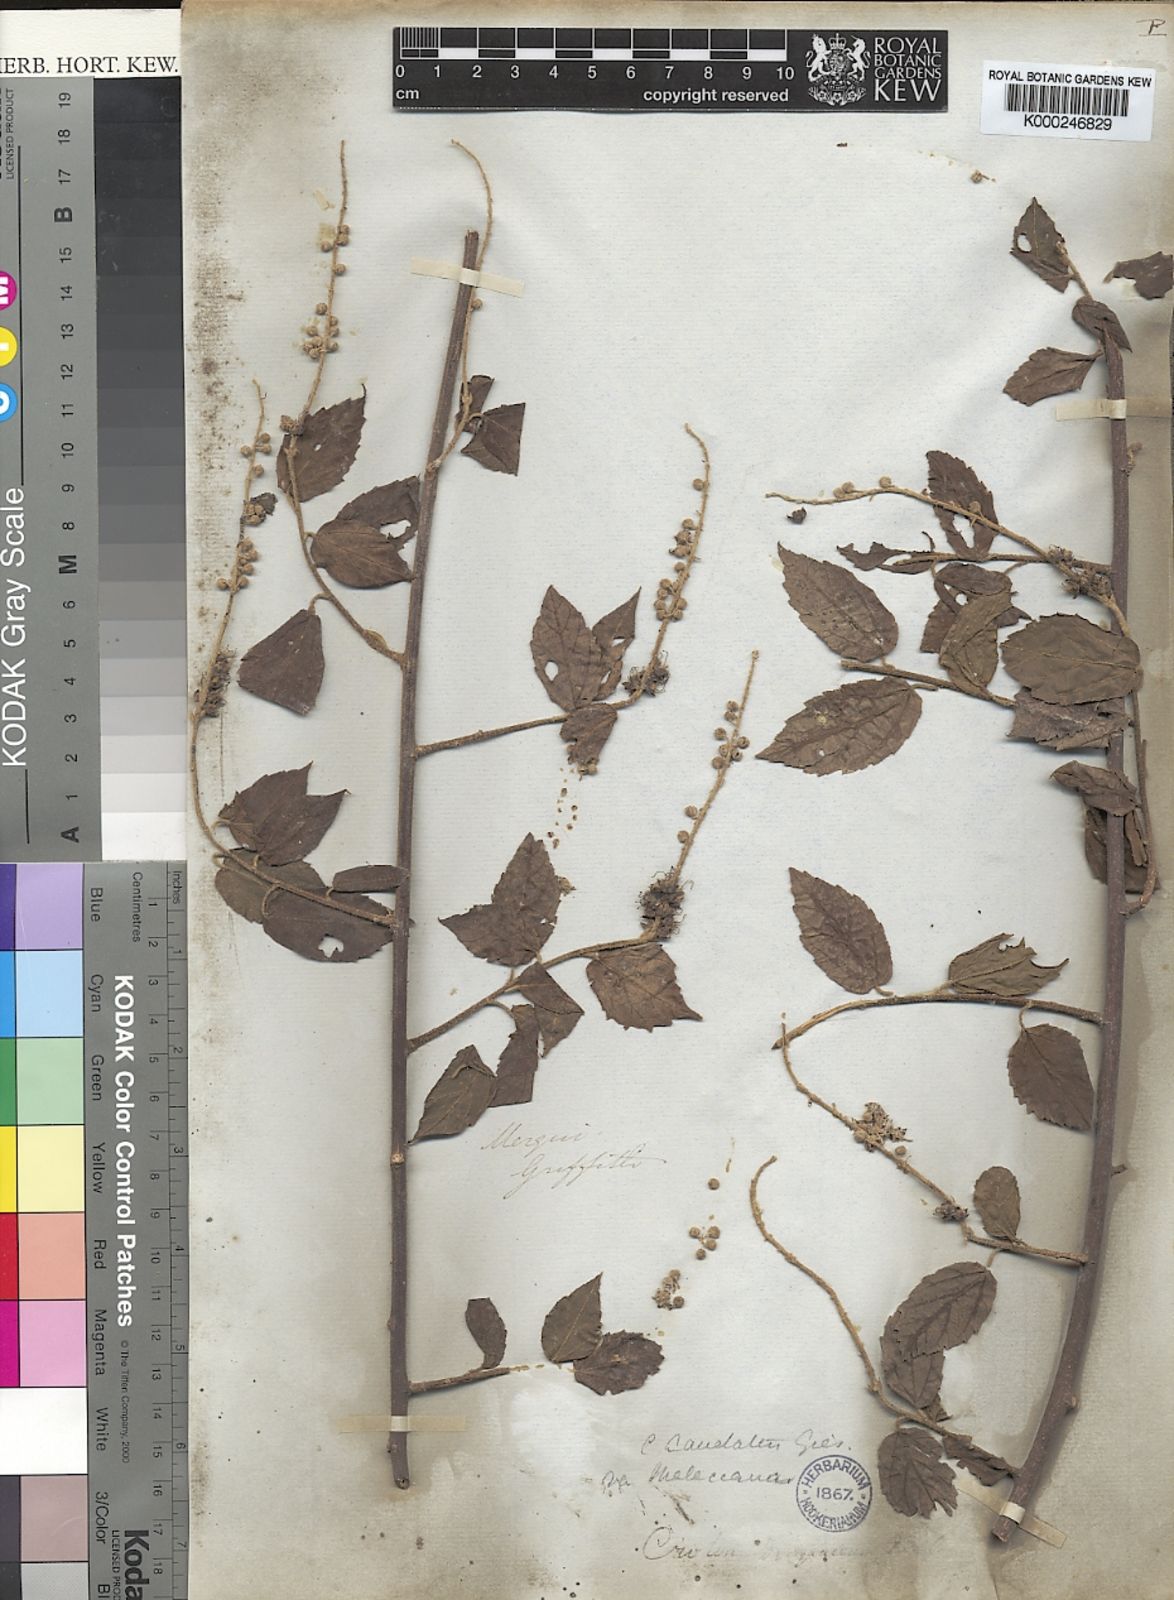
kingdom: Plantae
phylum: Tracheophyta
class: Magnoliopsida
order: Malpighiales
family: Euphorbiaceae
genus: Croton
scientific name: Croton caudatus
